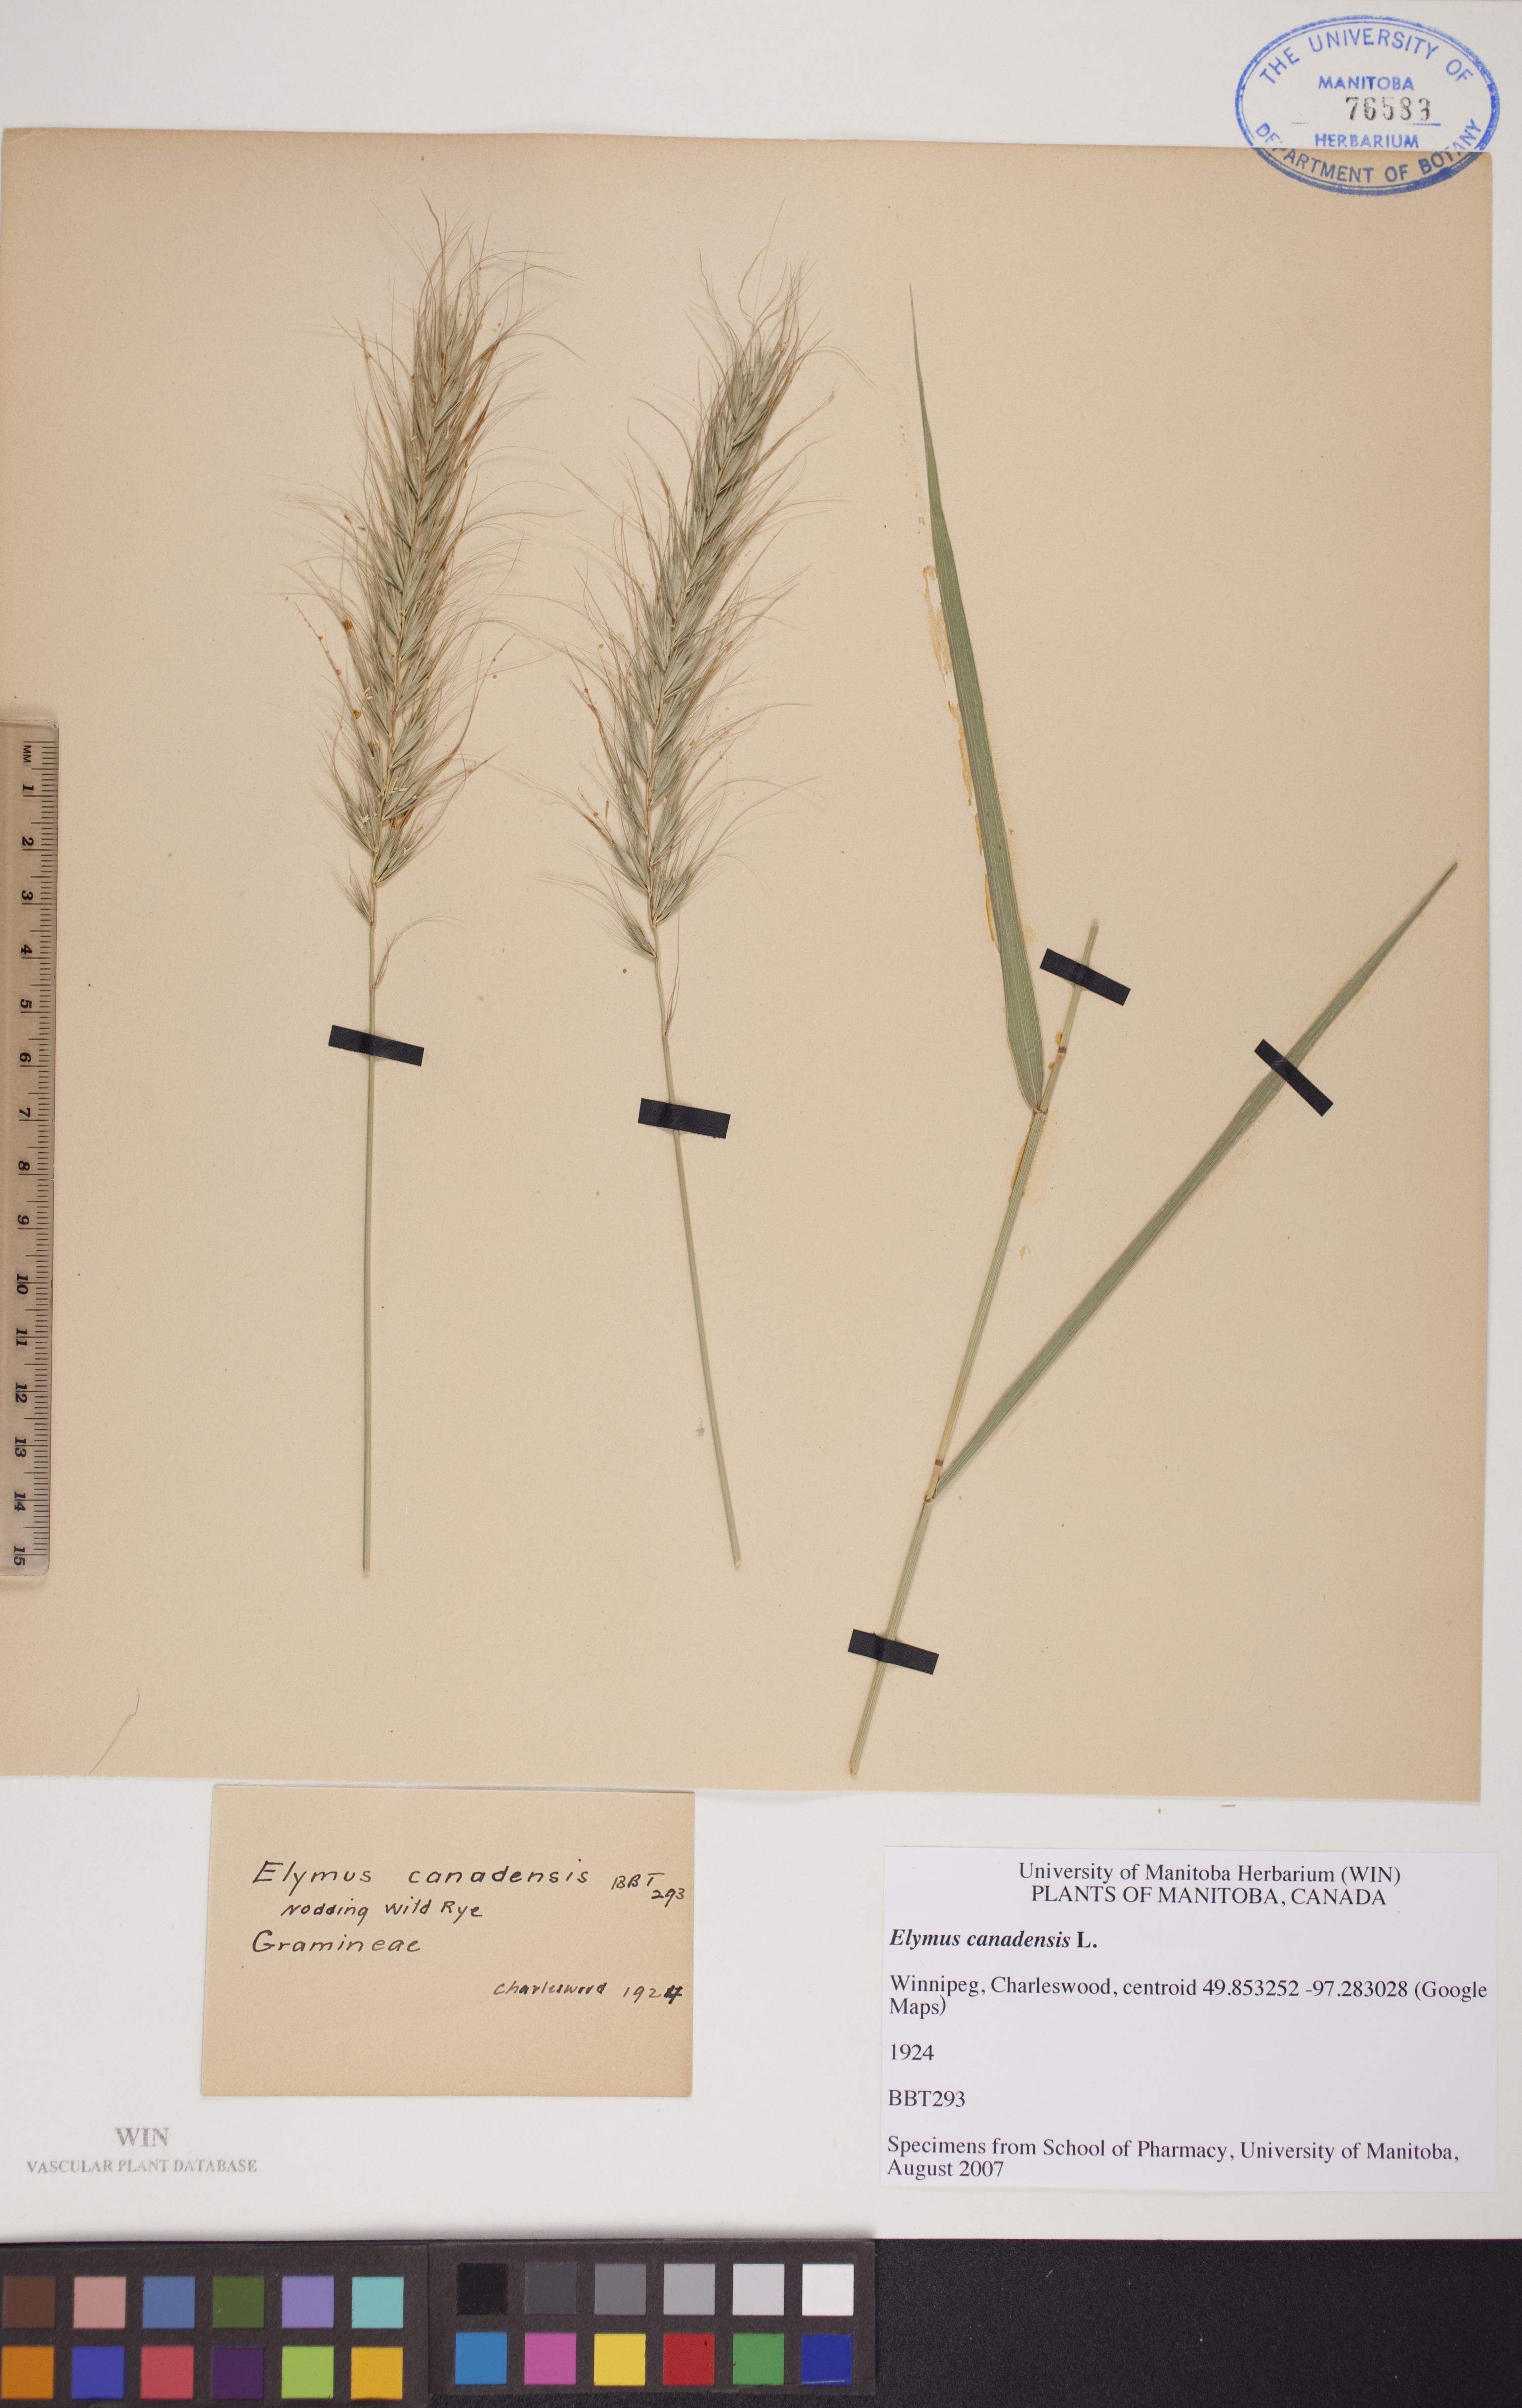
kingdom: Plantae
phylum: Tracheophyta
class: Liliopsida
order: Poales
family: Poaceae
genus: Elymus
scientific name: Elymus canadensis
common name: Canada wild rye
